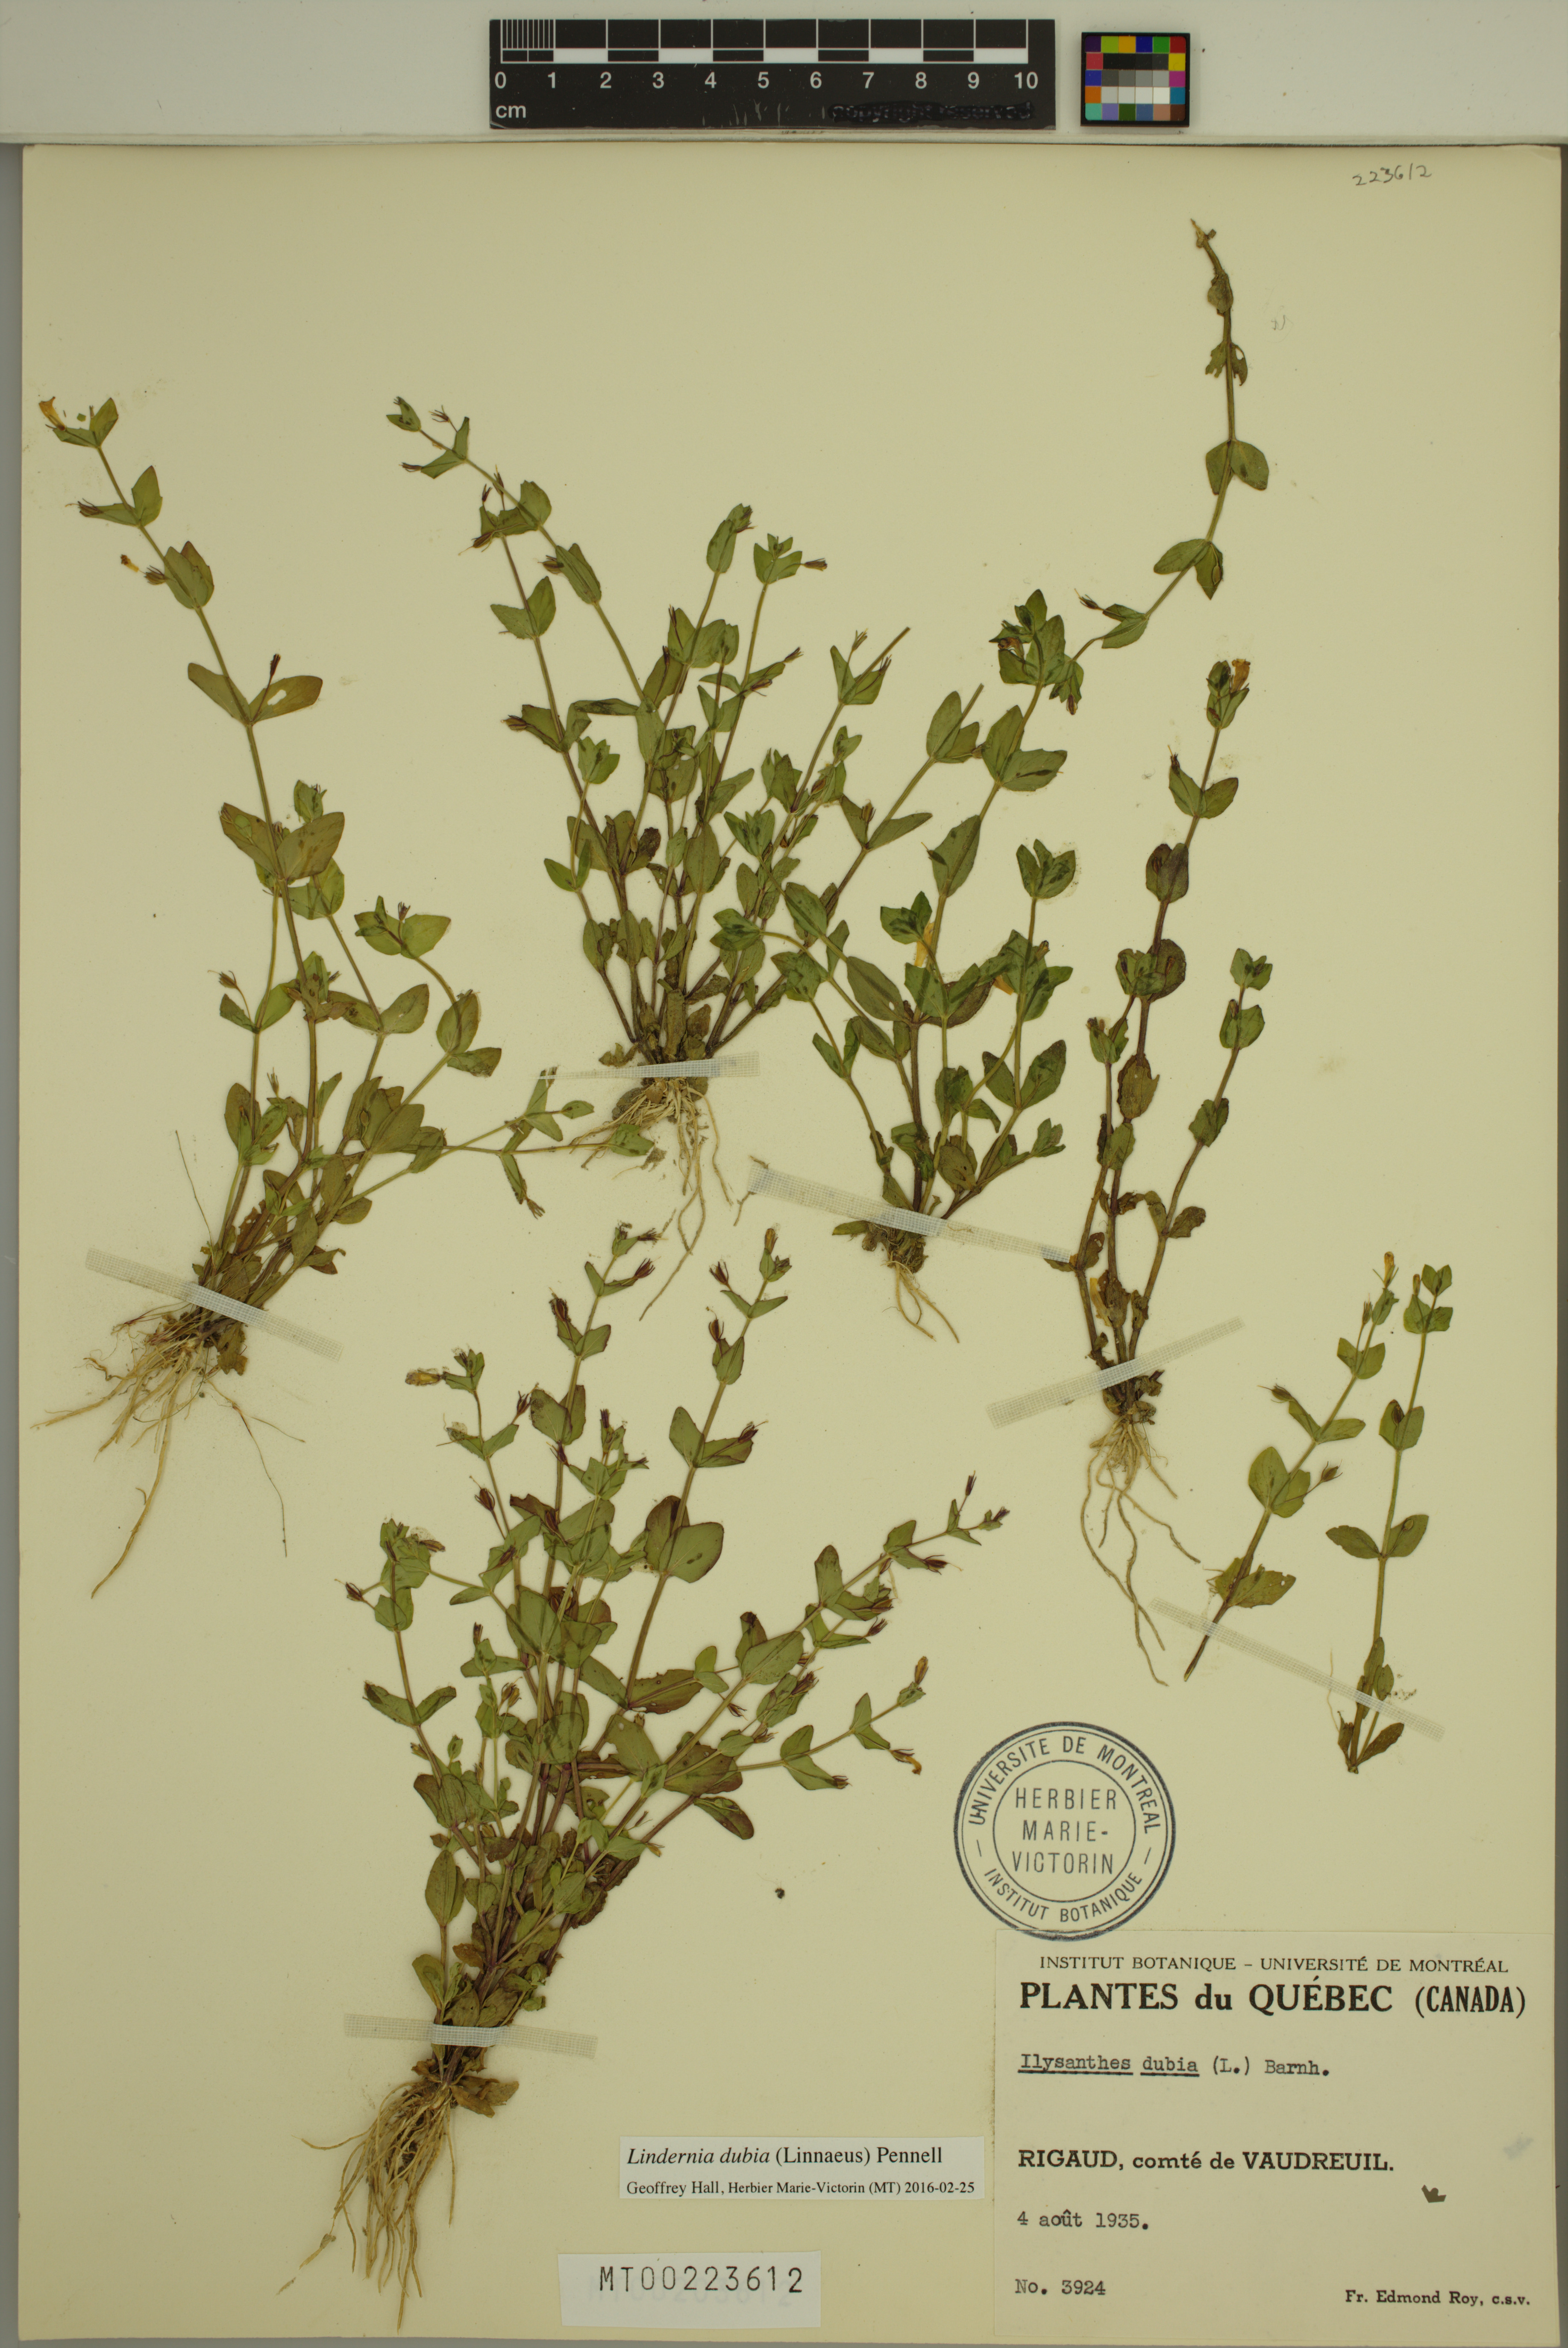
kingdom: Plantae
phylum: Tracheophyta
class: Magnoliopsida
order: Lamiales
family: Linderniaceae
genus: Lindernia
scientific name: Lindernia dubia
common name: Annual false pimpernel
